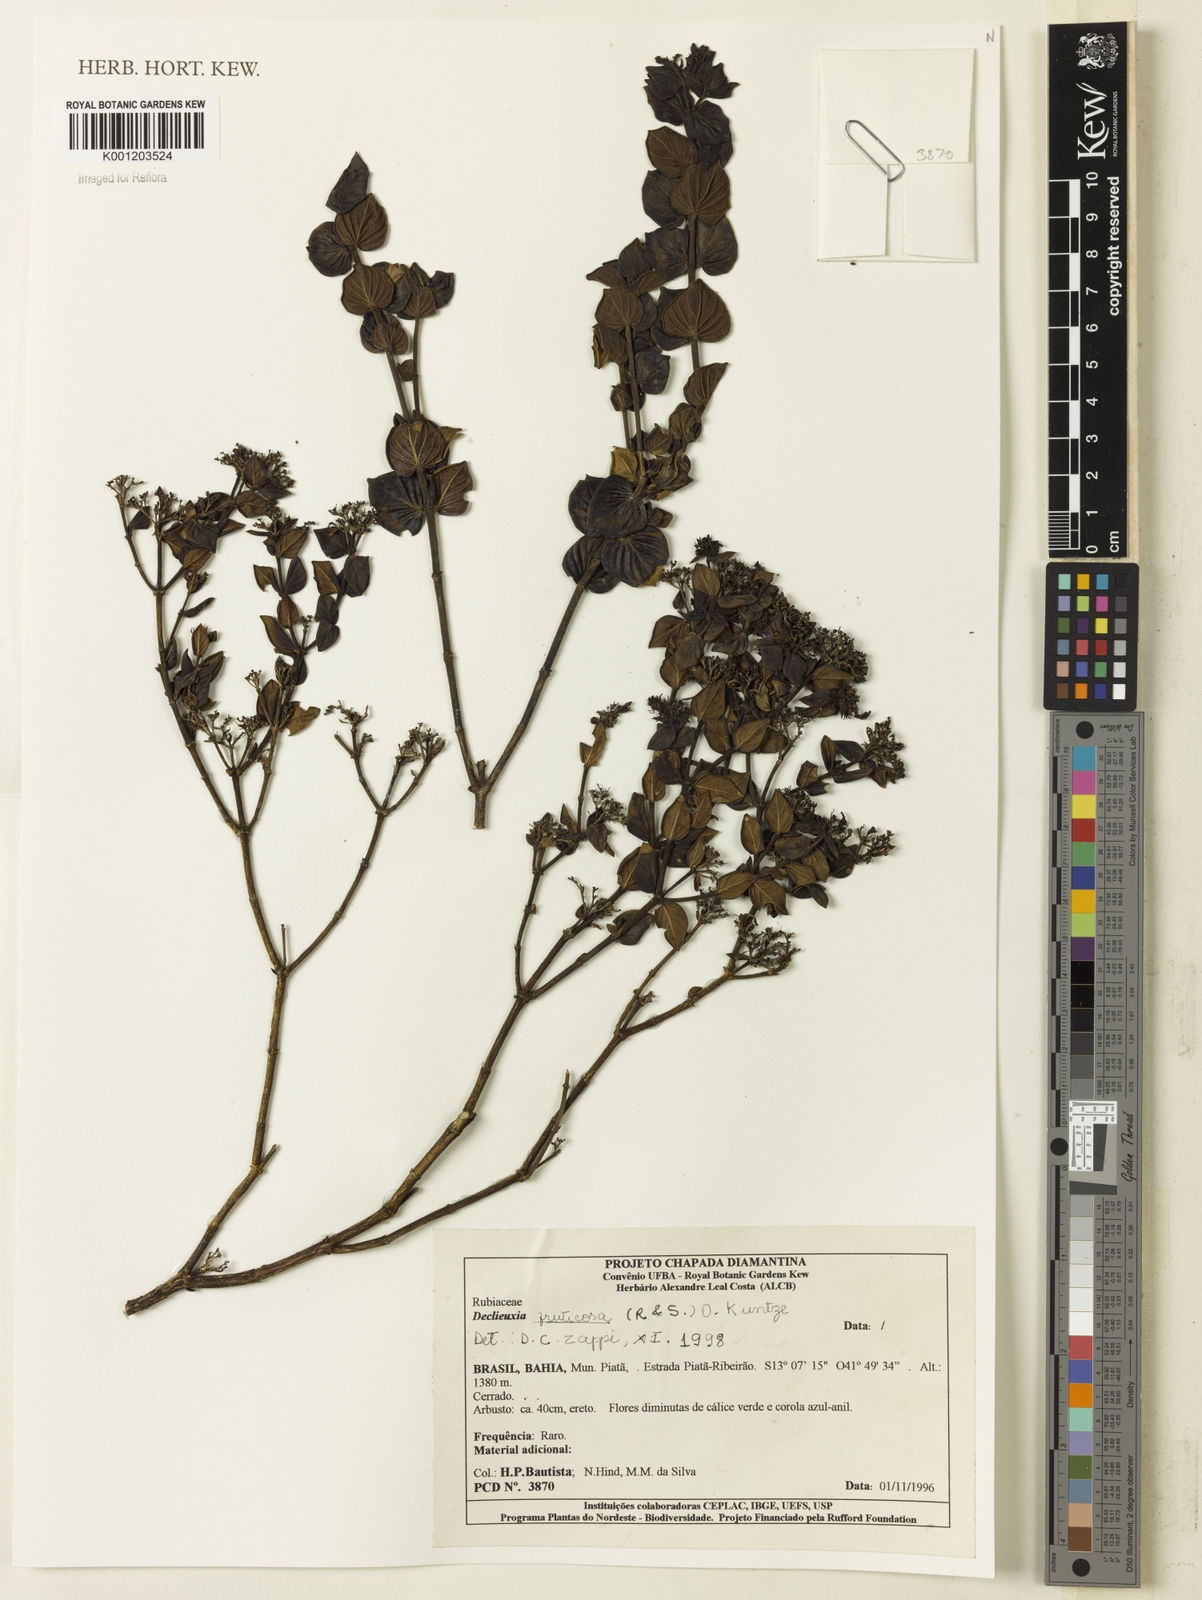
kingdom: Plantae
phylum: Tracheophyta
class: Magnoliopsida
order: Gentianales
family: Rubiaceae
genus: Declieuxia
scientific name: Declieuxia fruticosa
